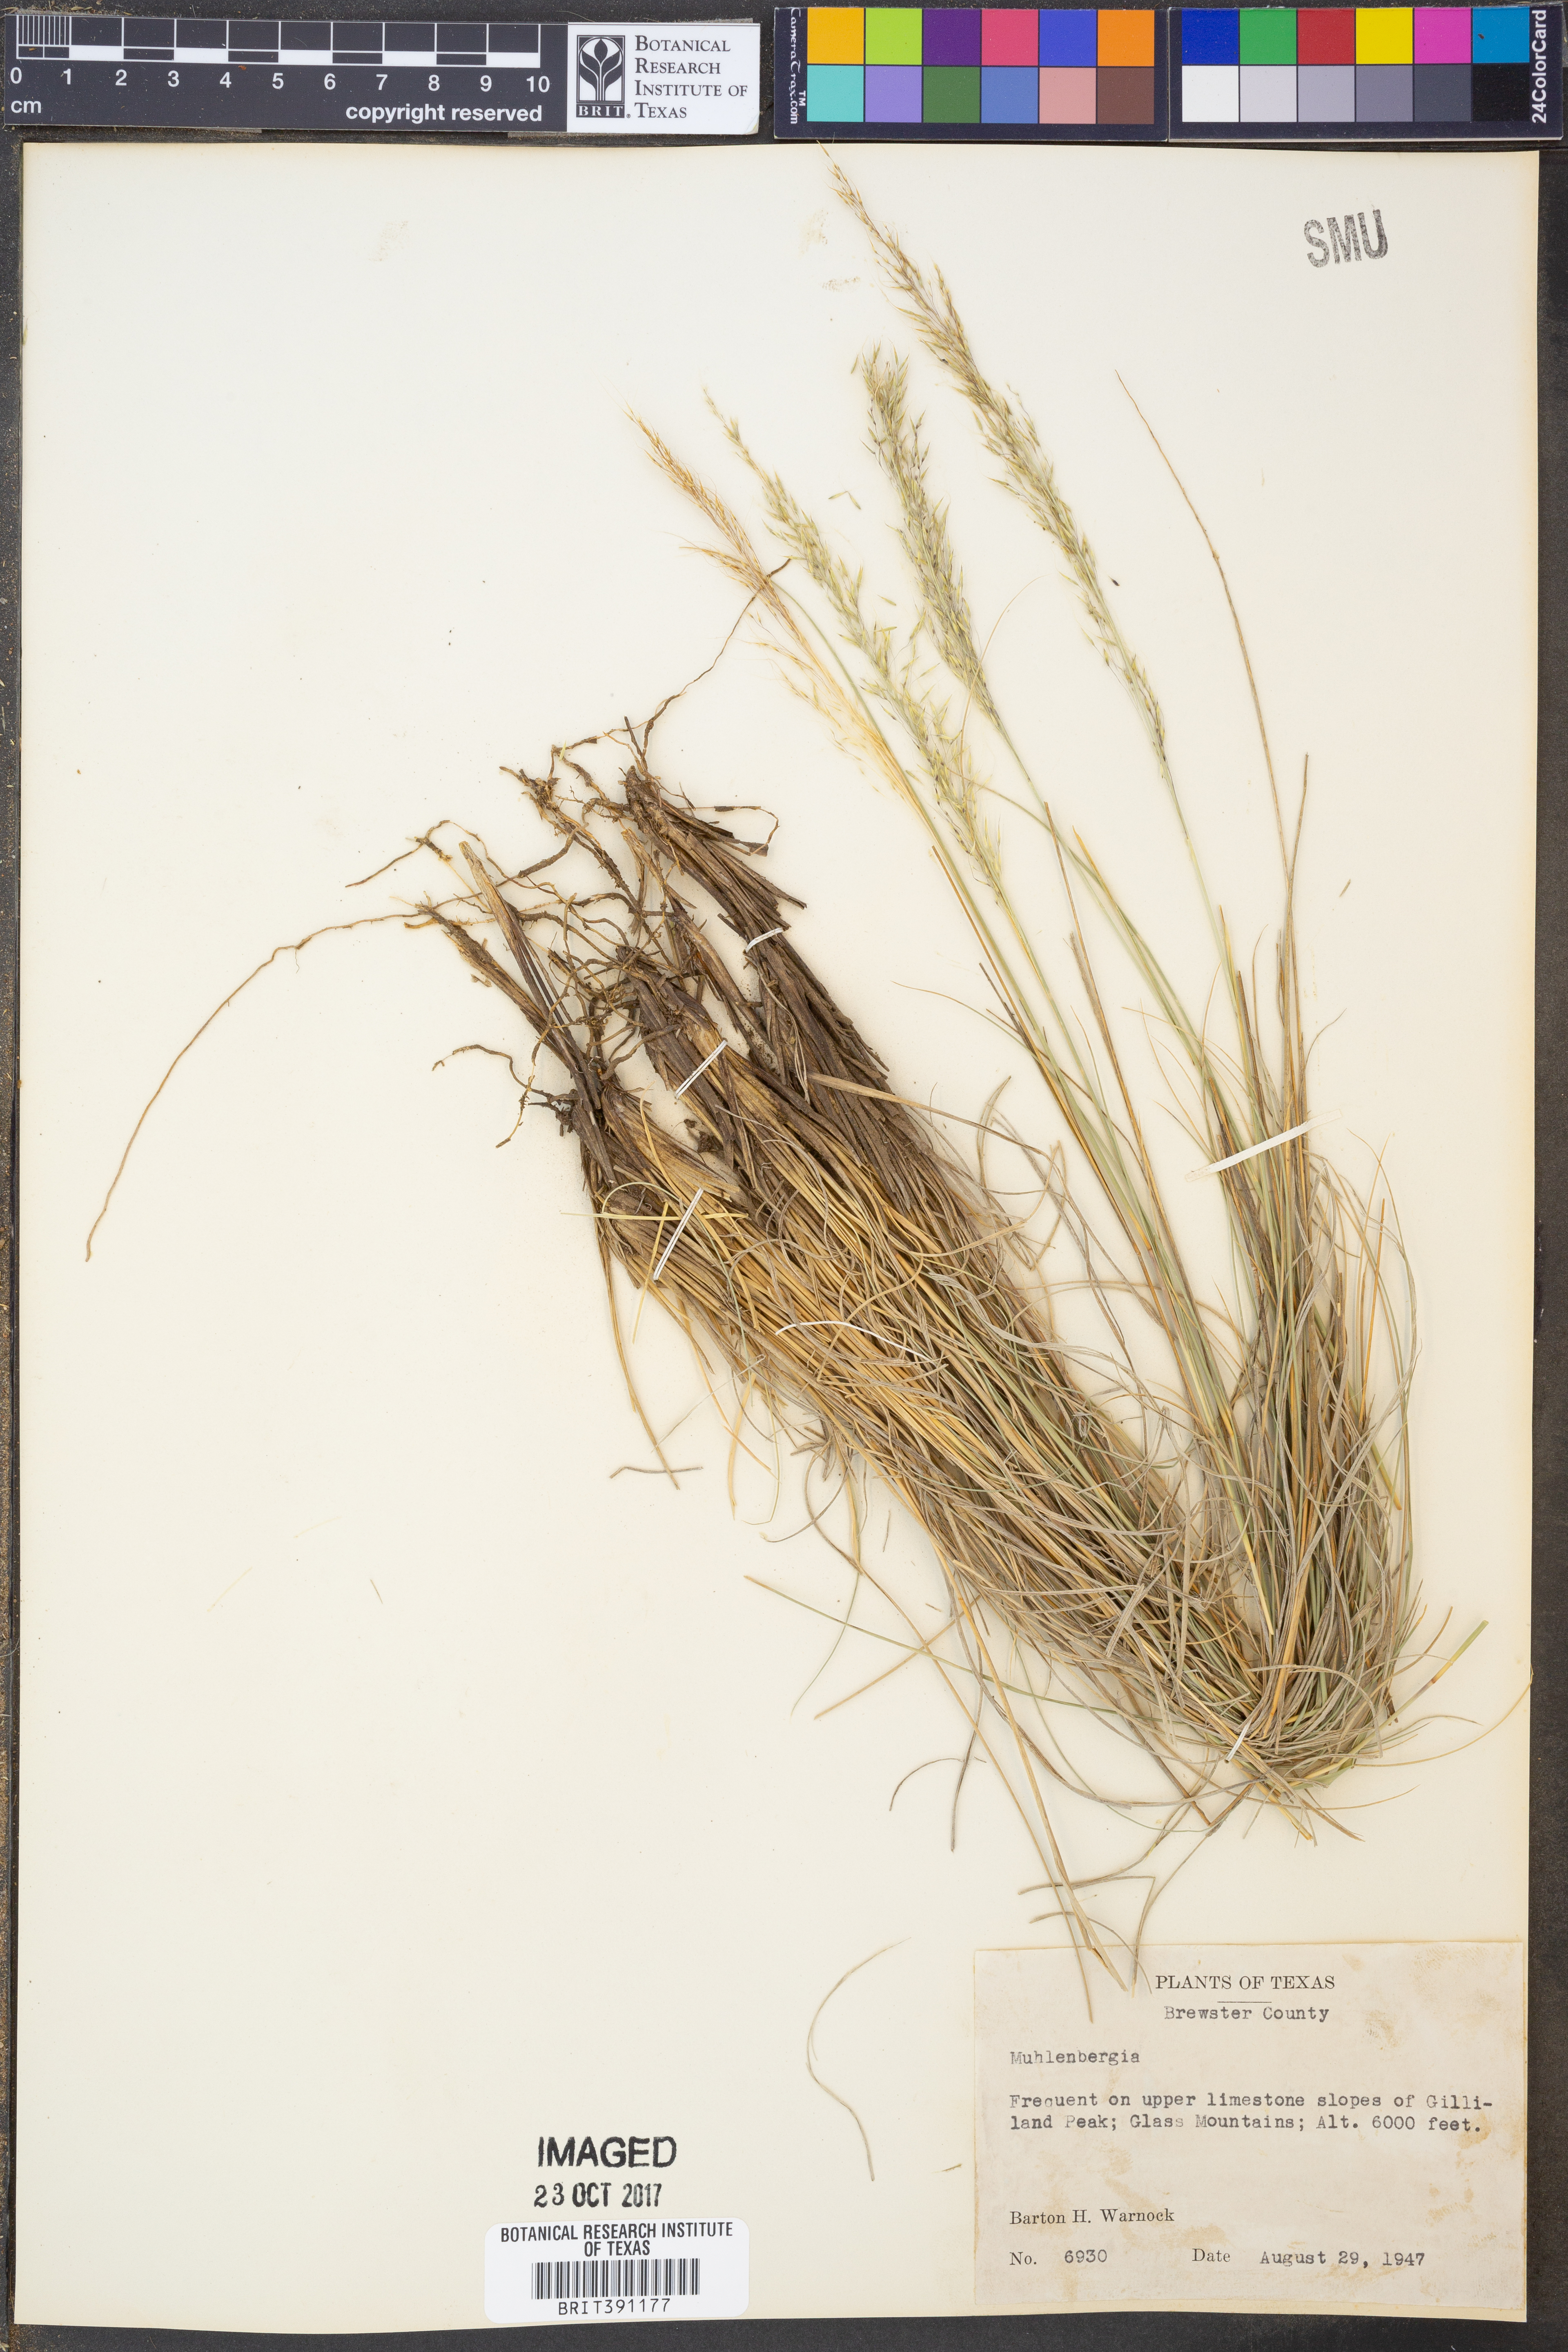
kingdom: Plantae
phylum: Tracheophyta
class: Liliopsida
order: Poales
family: Poaceae
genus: Muhlenbergia
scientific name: Muhlenbergia
